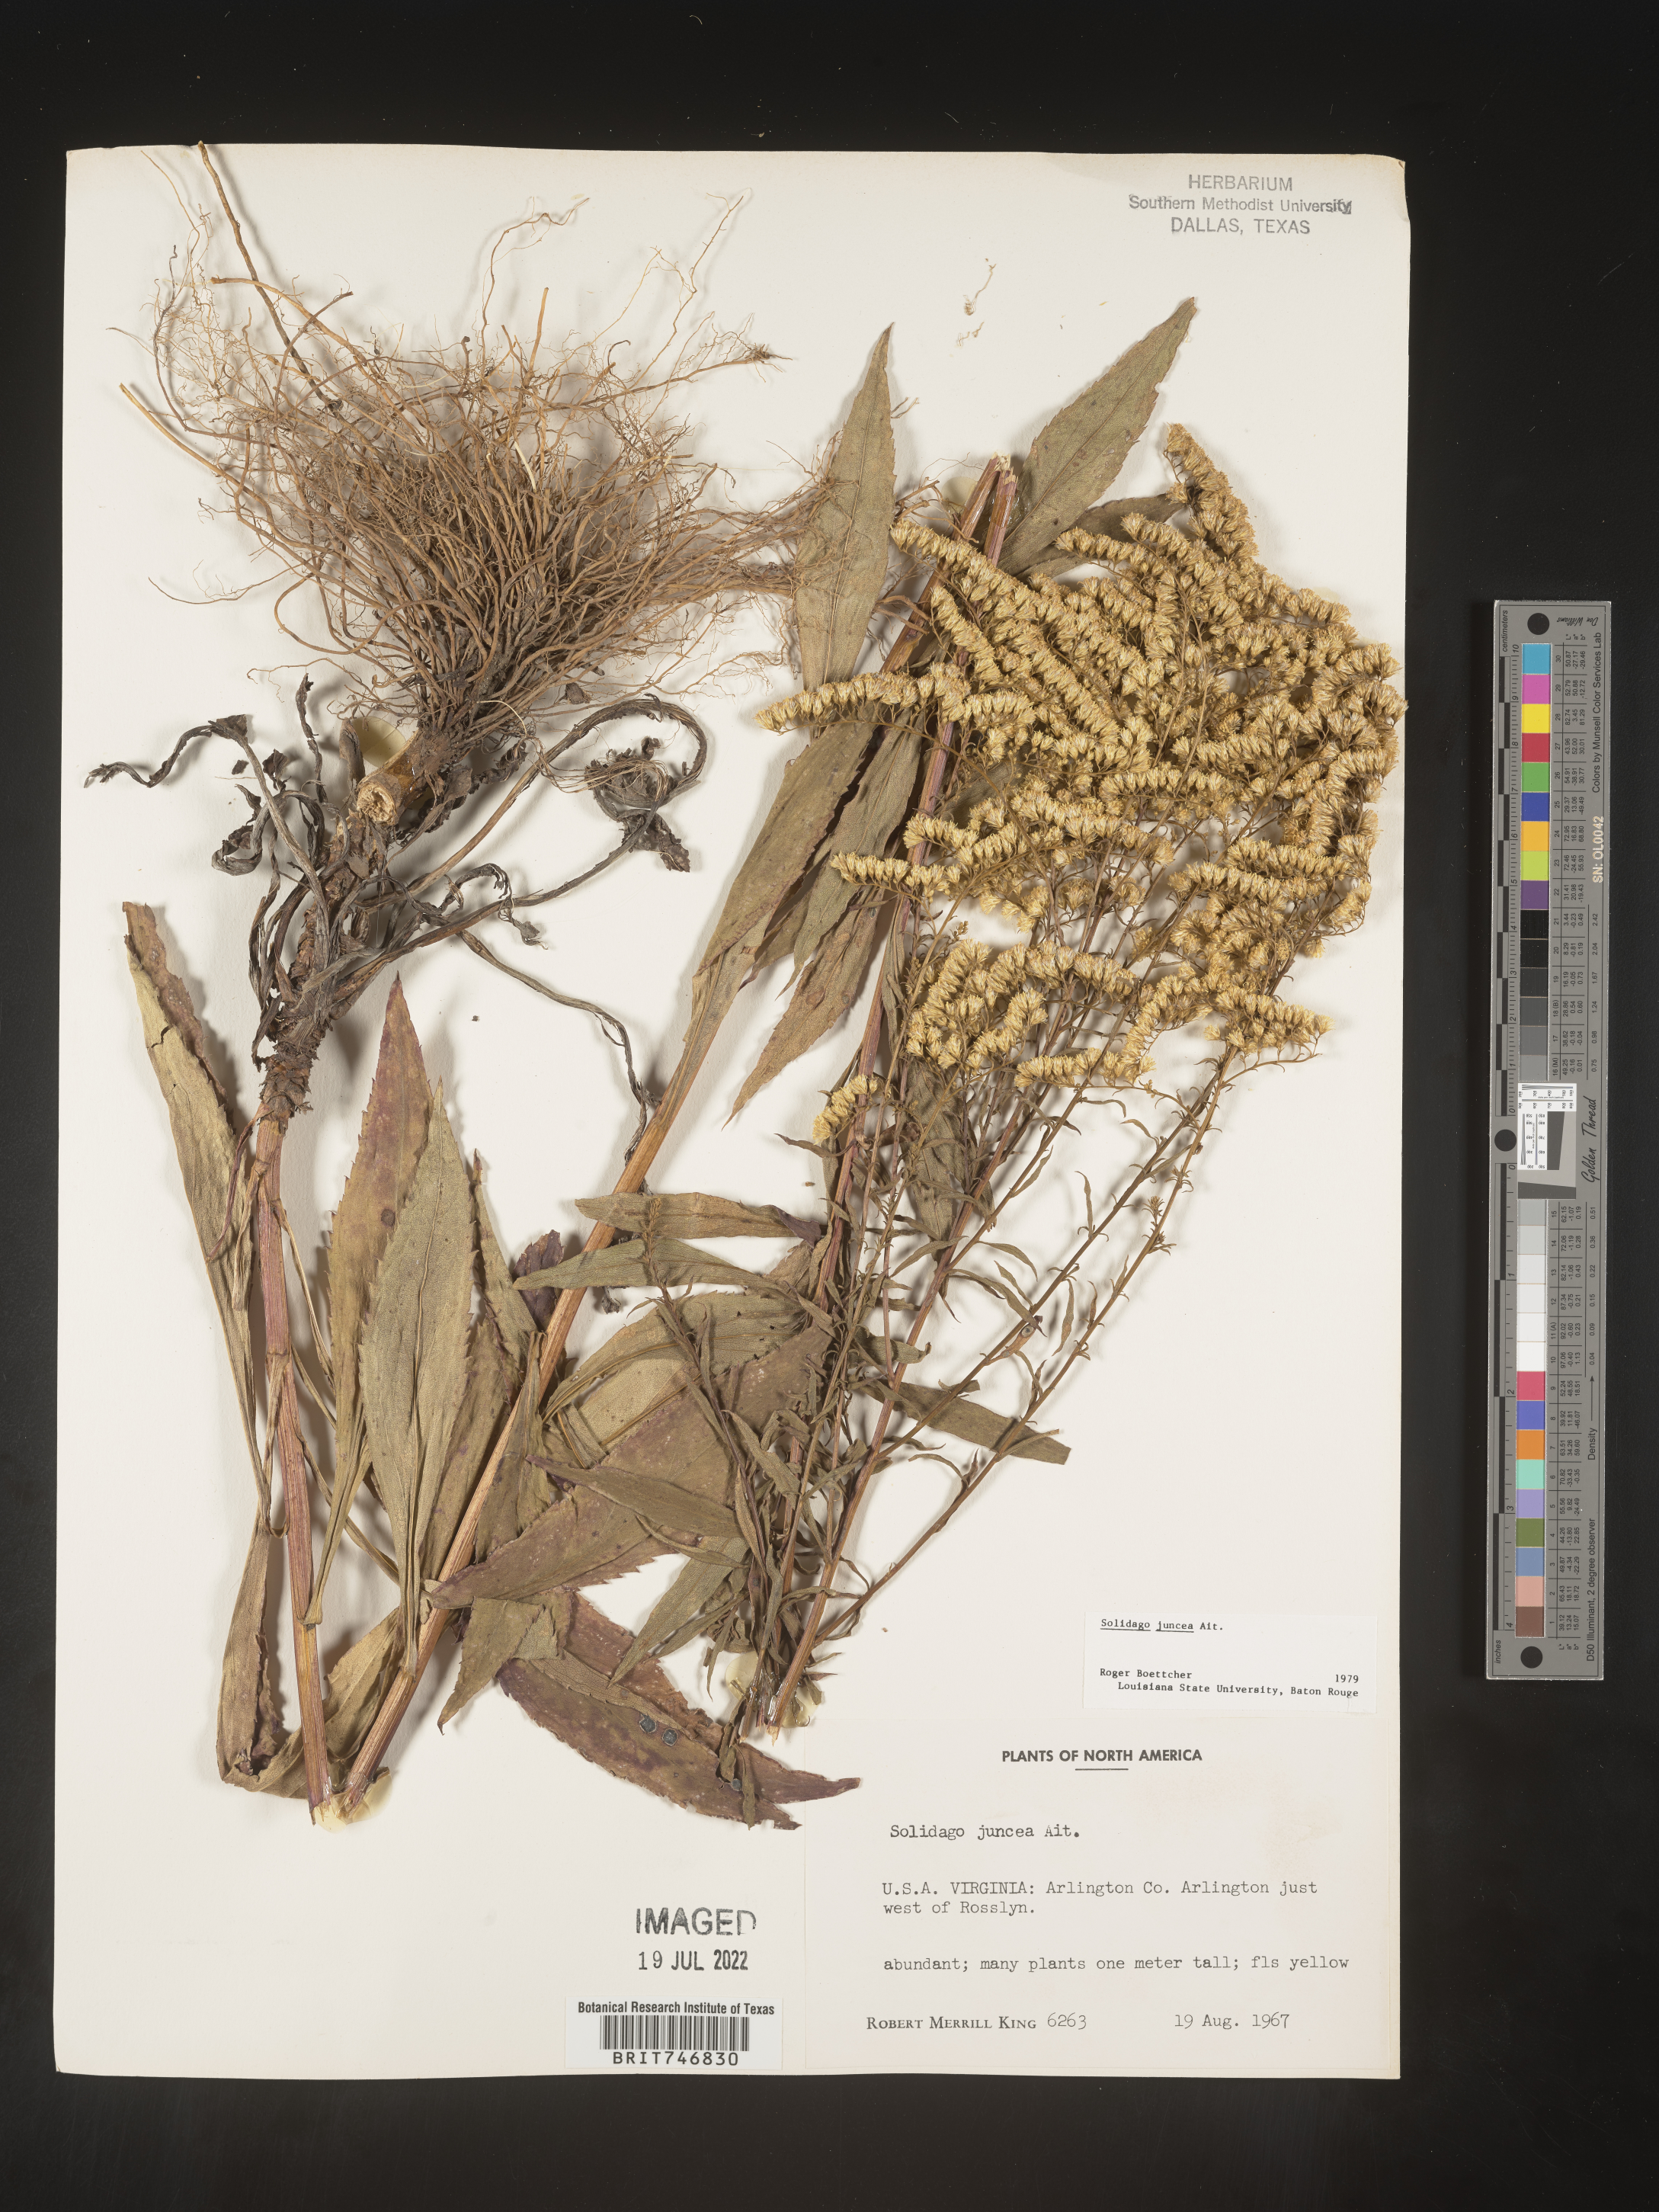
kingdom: Plantae
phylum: Tracheophyta
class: Magnoliopsida
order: Asterales
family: Asteraceae
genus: Solidago
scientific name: Solidago juncea
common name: Early goldenrod
